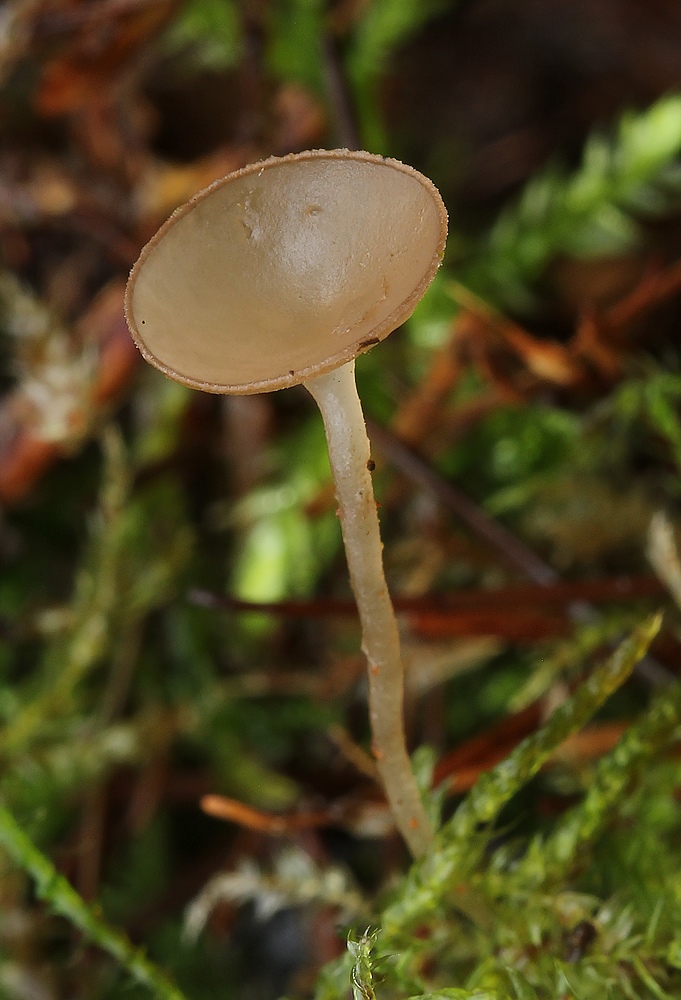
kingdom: Fungi
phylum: Ascomycota
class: Leotiomycetes
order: Helotiales
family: Sclerotiniaceae
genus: Ciboria
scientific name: Ciboria amentacea
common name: ellerakle-knoldskive
